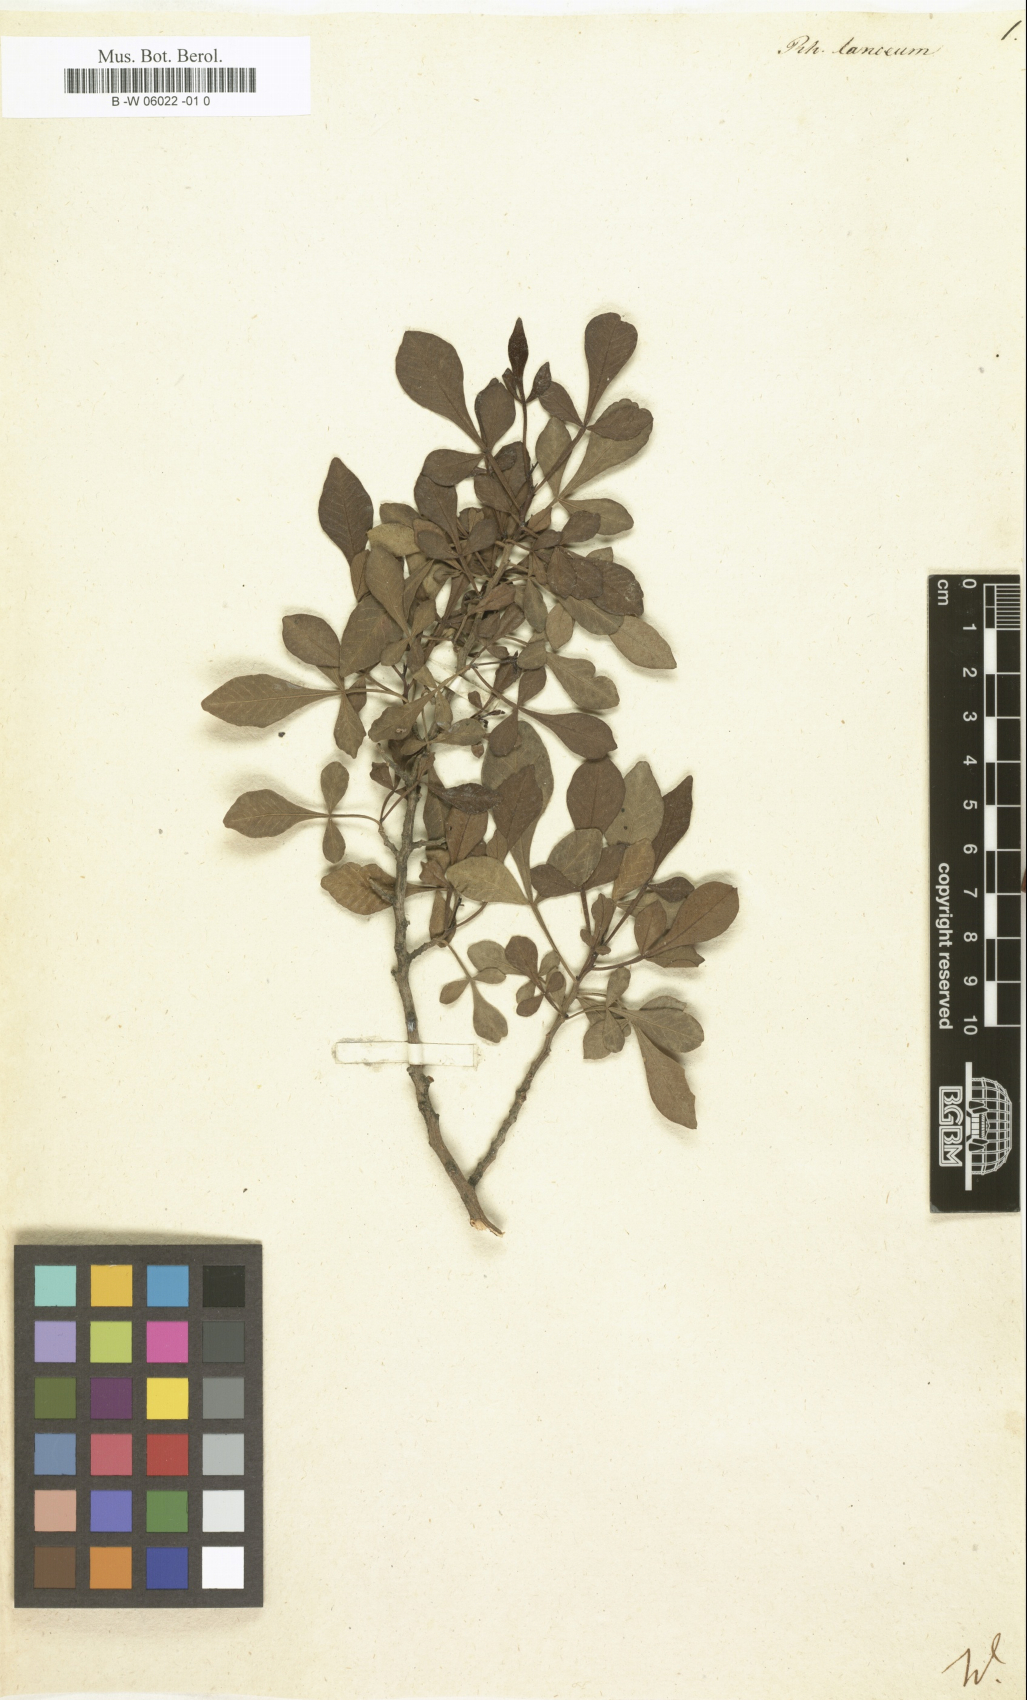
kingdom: Plantae
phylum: Tracheophyta
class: Magnoliopsida
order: Sapindales
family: Anacardiaceae
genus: Searsia
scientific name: Searsia
